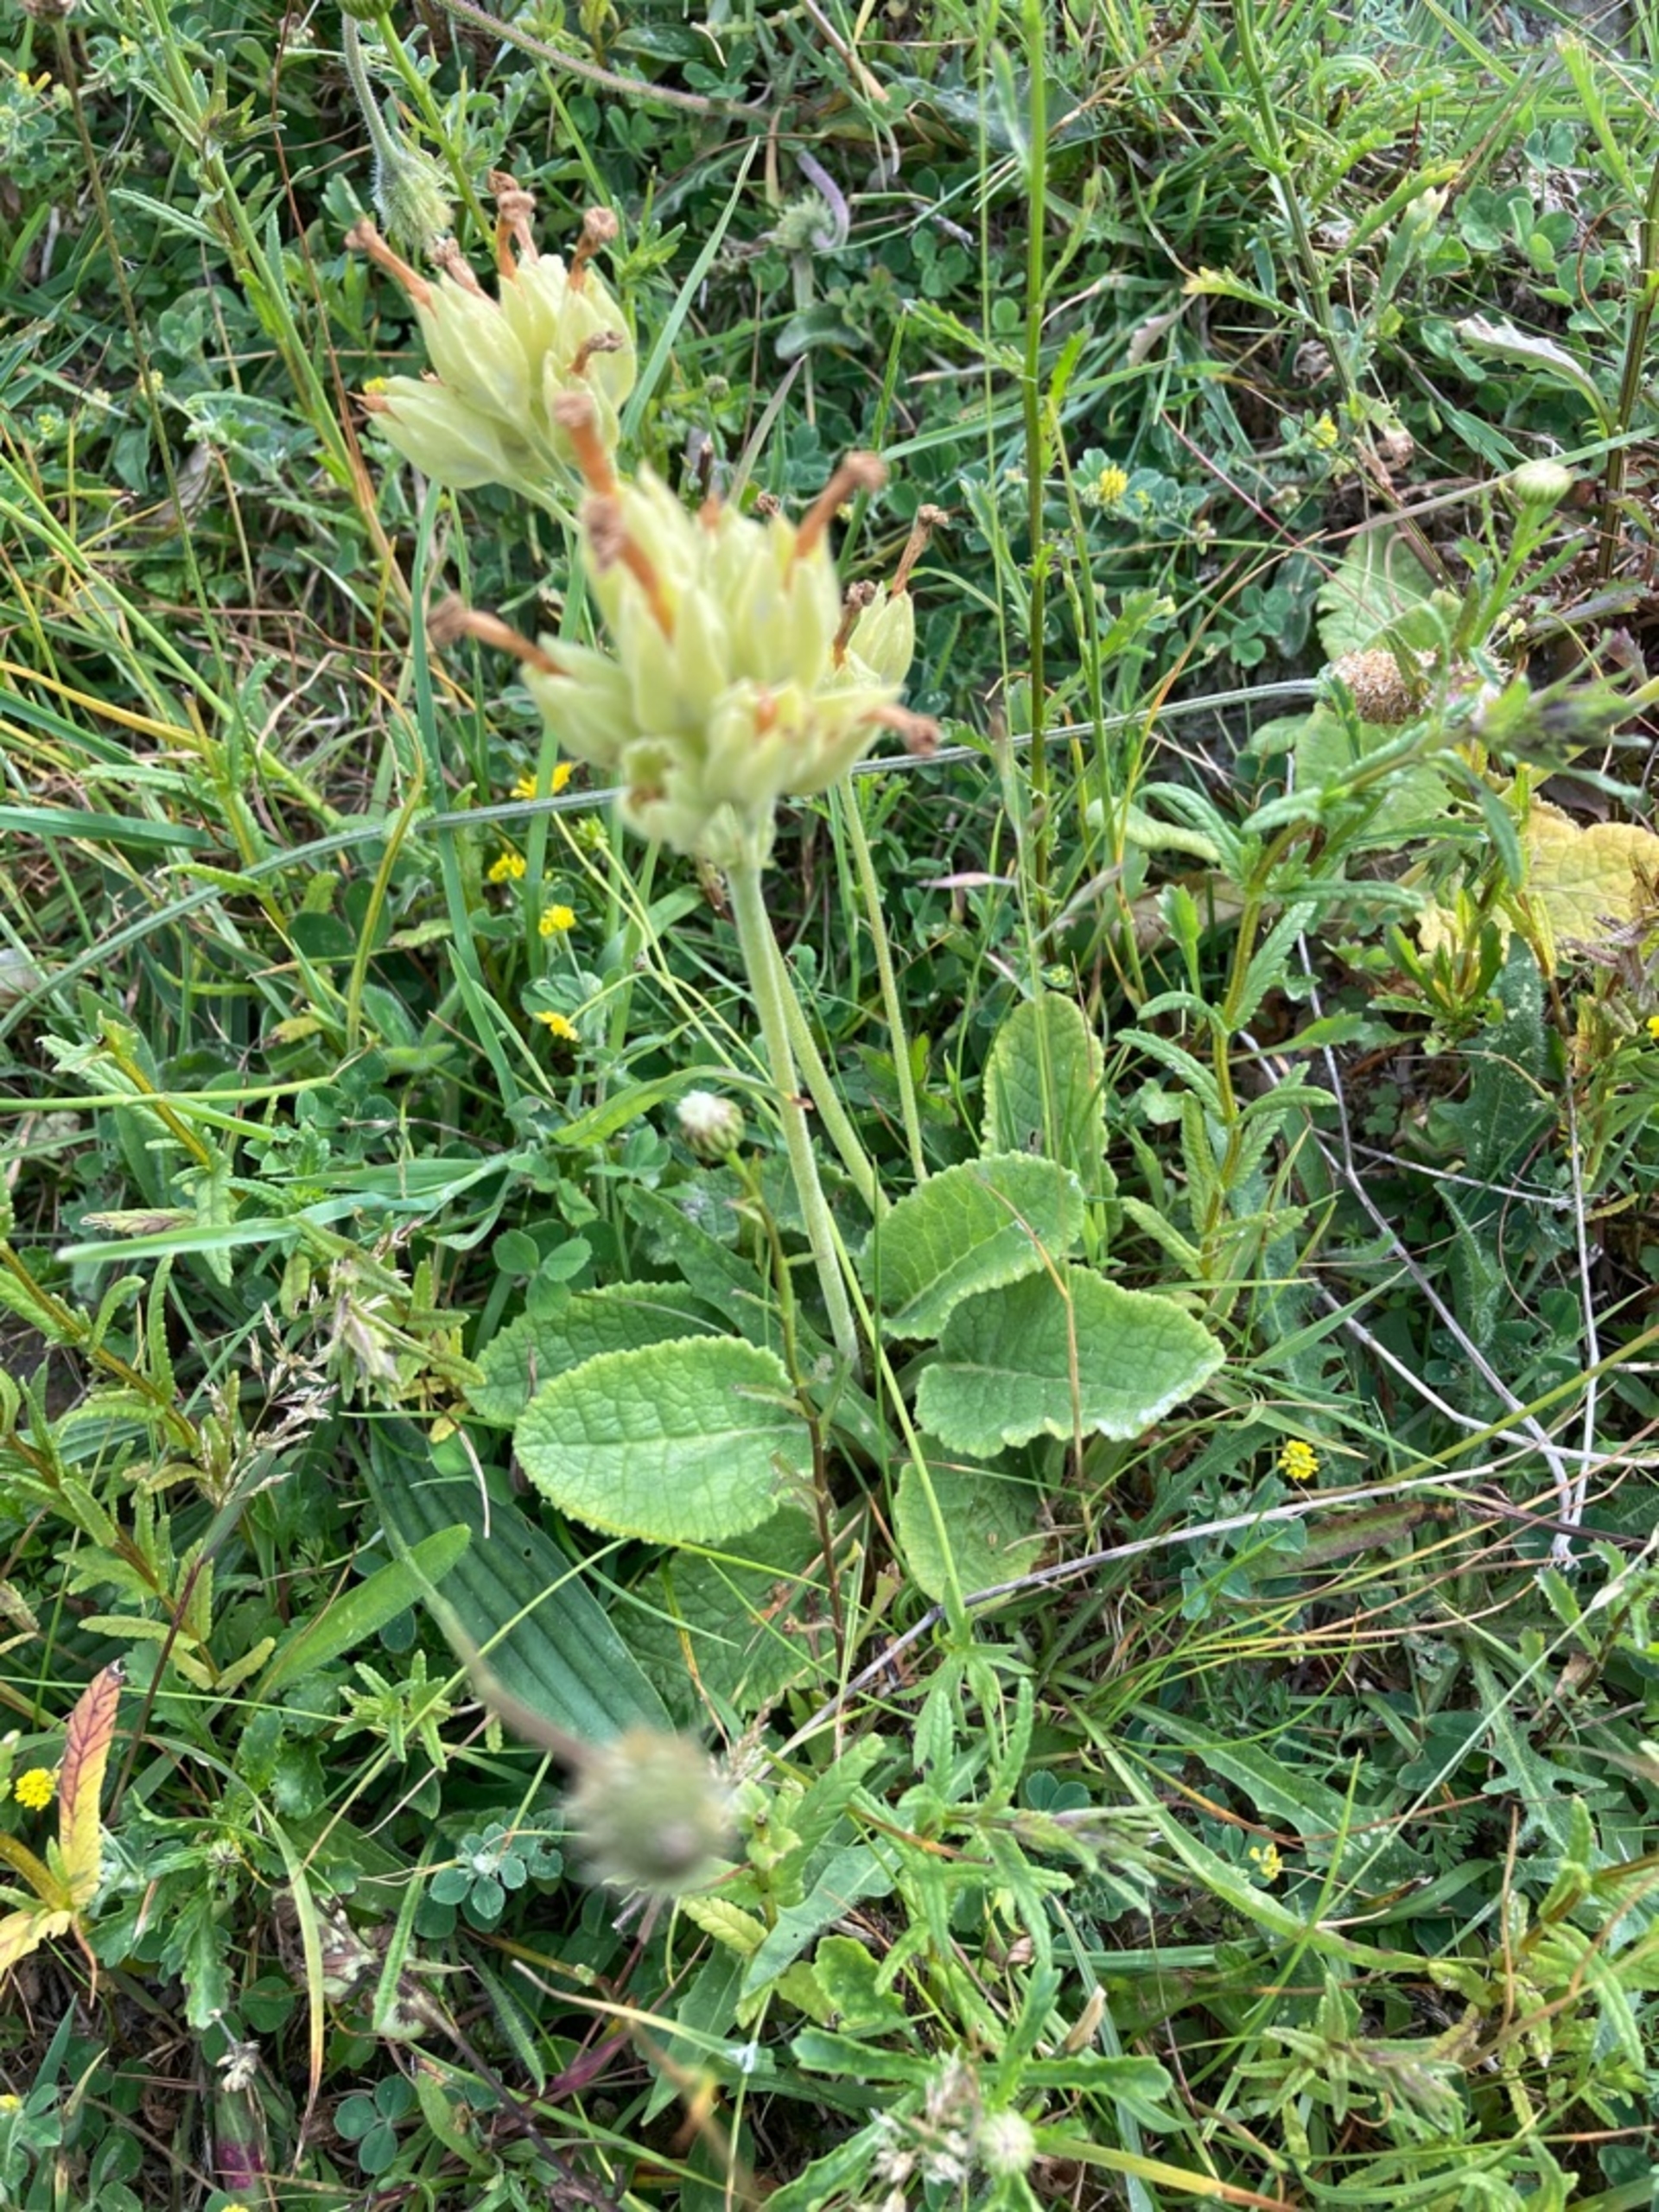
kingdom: Plantae
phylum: Tracheophyta
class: Magnoliopsida
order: Ericales
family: Primulaceae
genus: Primula
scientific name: Primula veris
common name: Hulkravet kodriver
